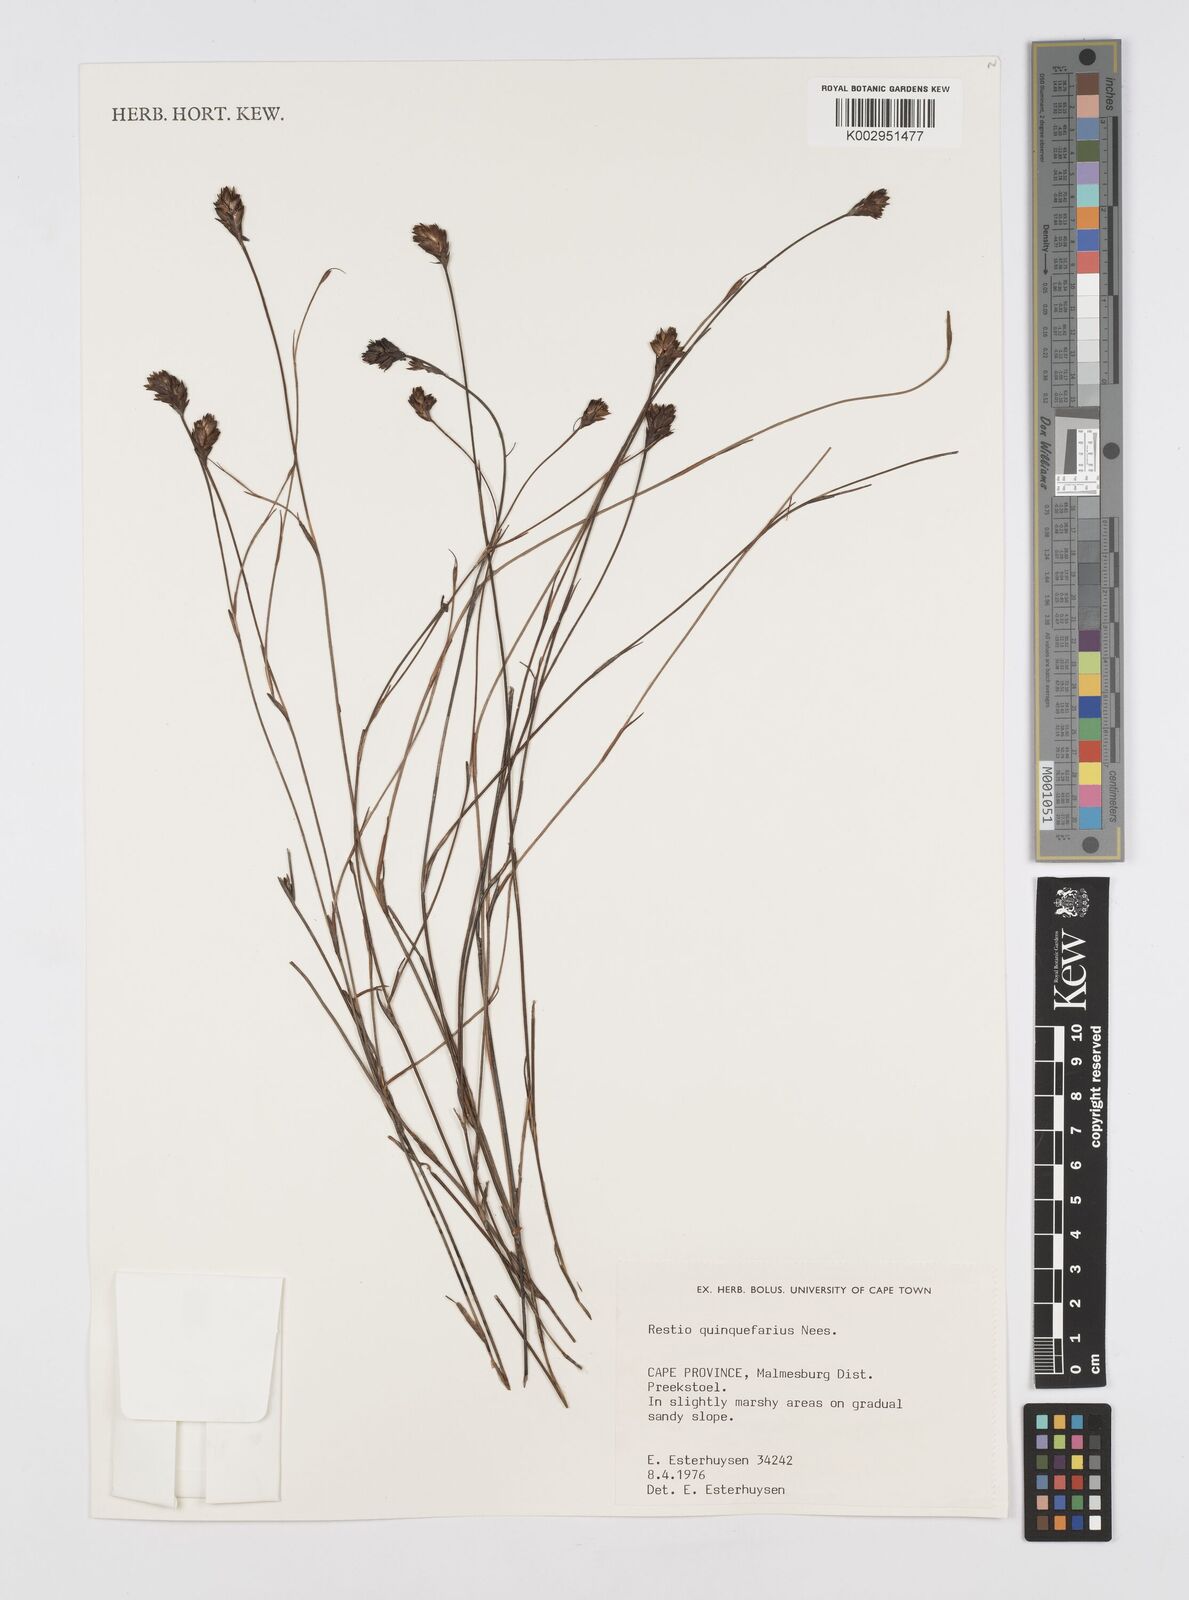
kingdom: Plantae
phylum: Tracheophyta
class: Liliopsida
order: Poales
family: Restionaceae
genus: Restio
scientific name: Restio quinquefarius
